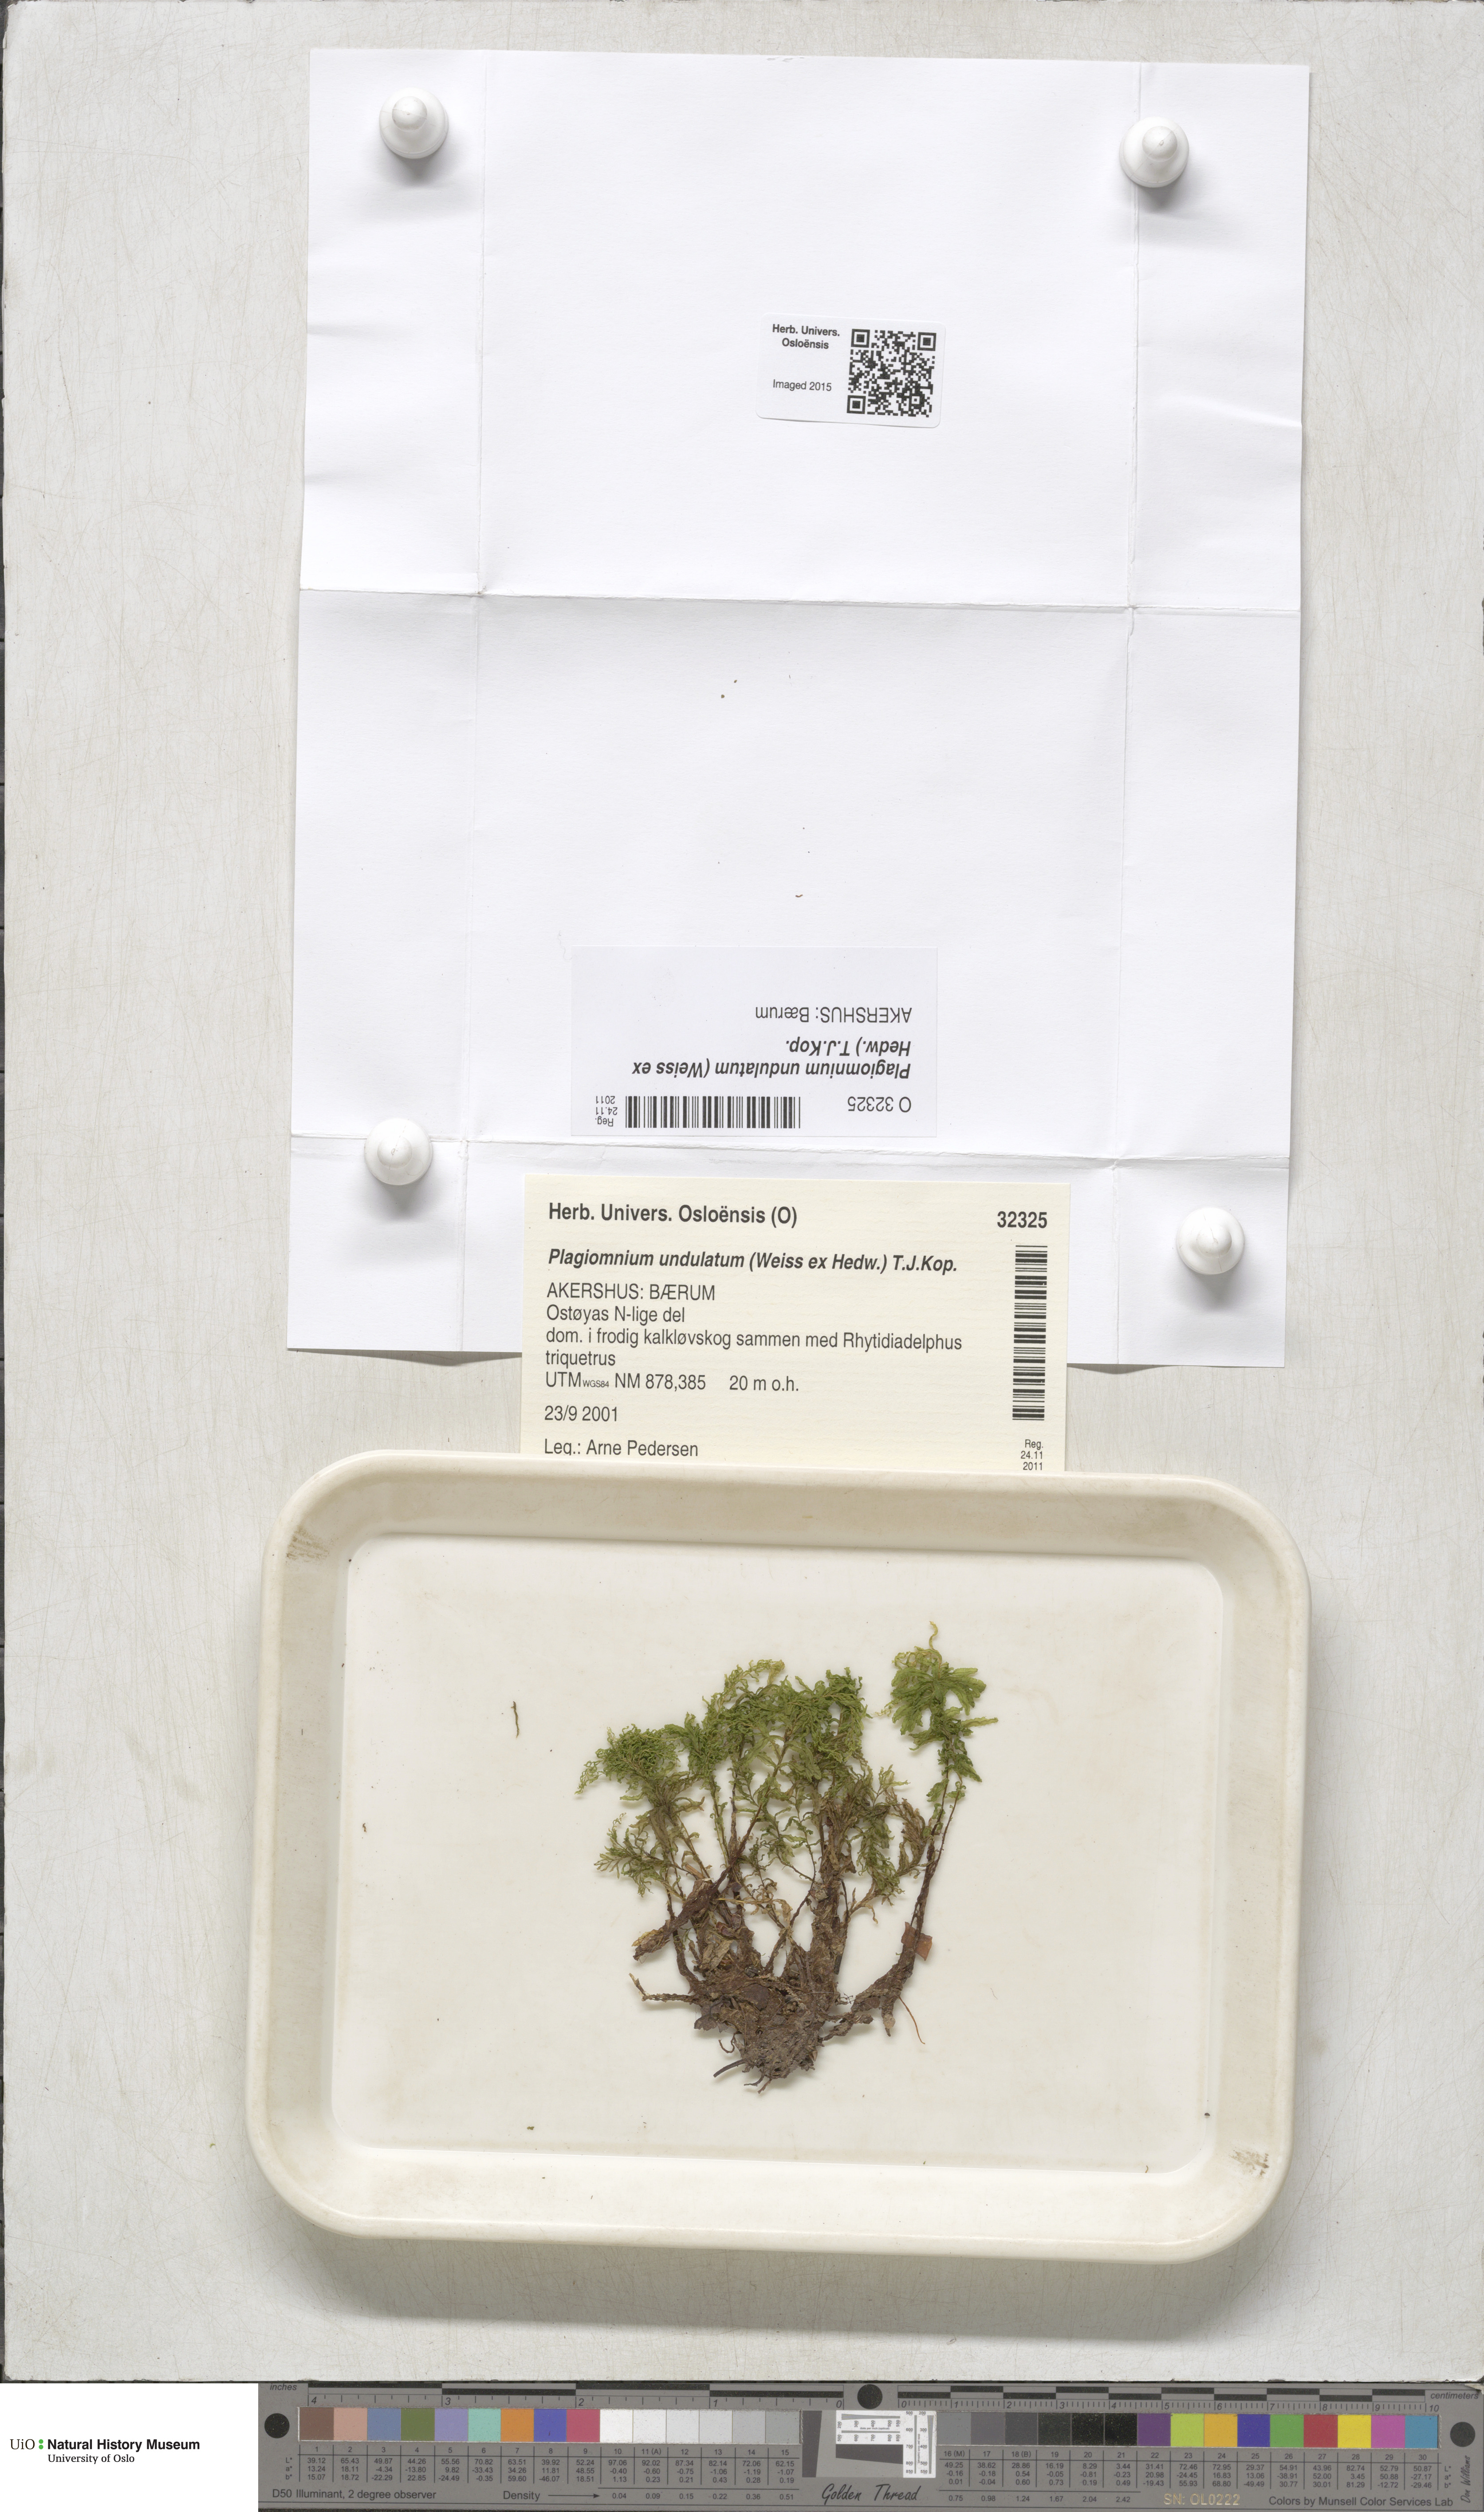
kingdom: Plantae
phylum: Bryophyta
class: Bryopsida
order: Bryales
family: Mniaceae
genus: Plagiomnium
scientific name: Plagiomnium undulatum
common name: Hart's-tongue thyme-moss
